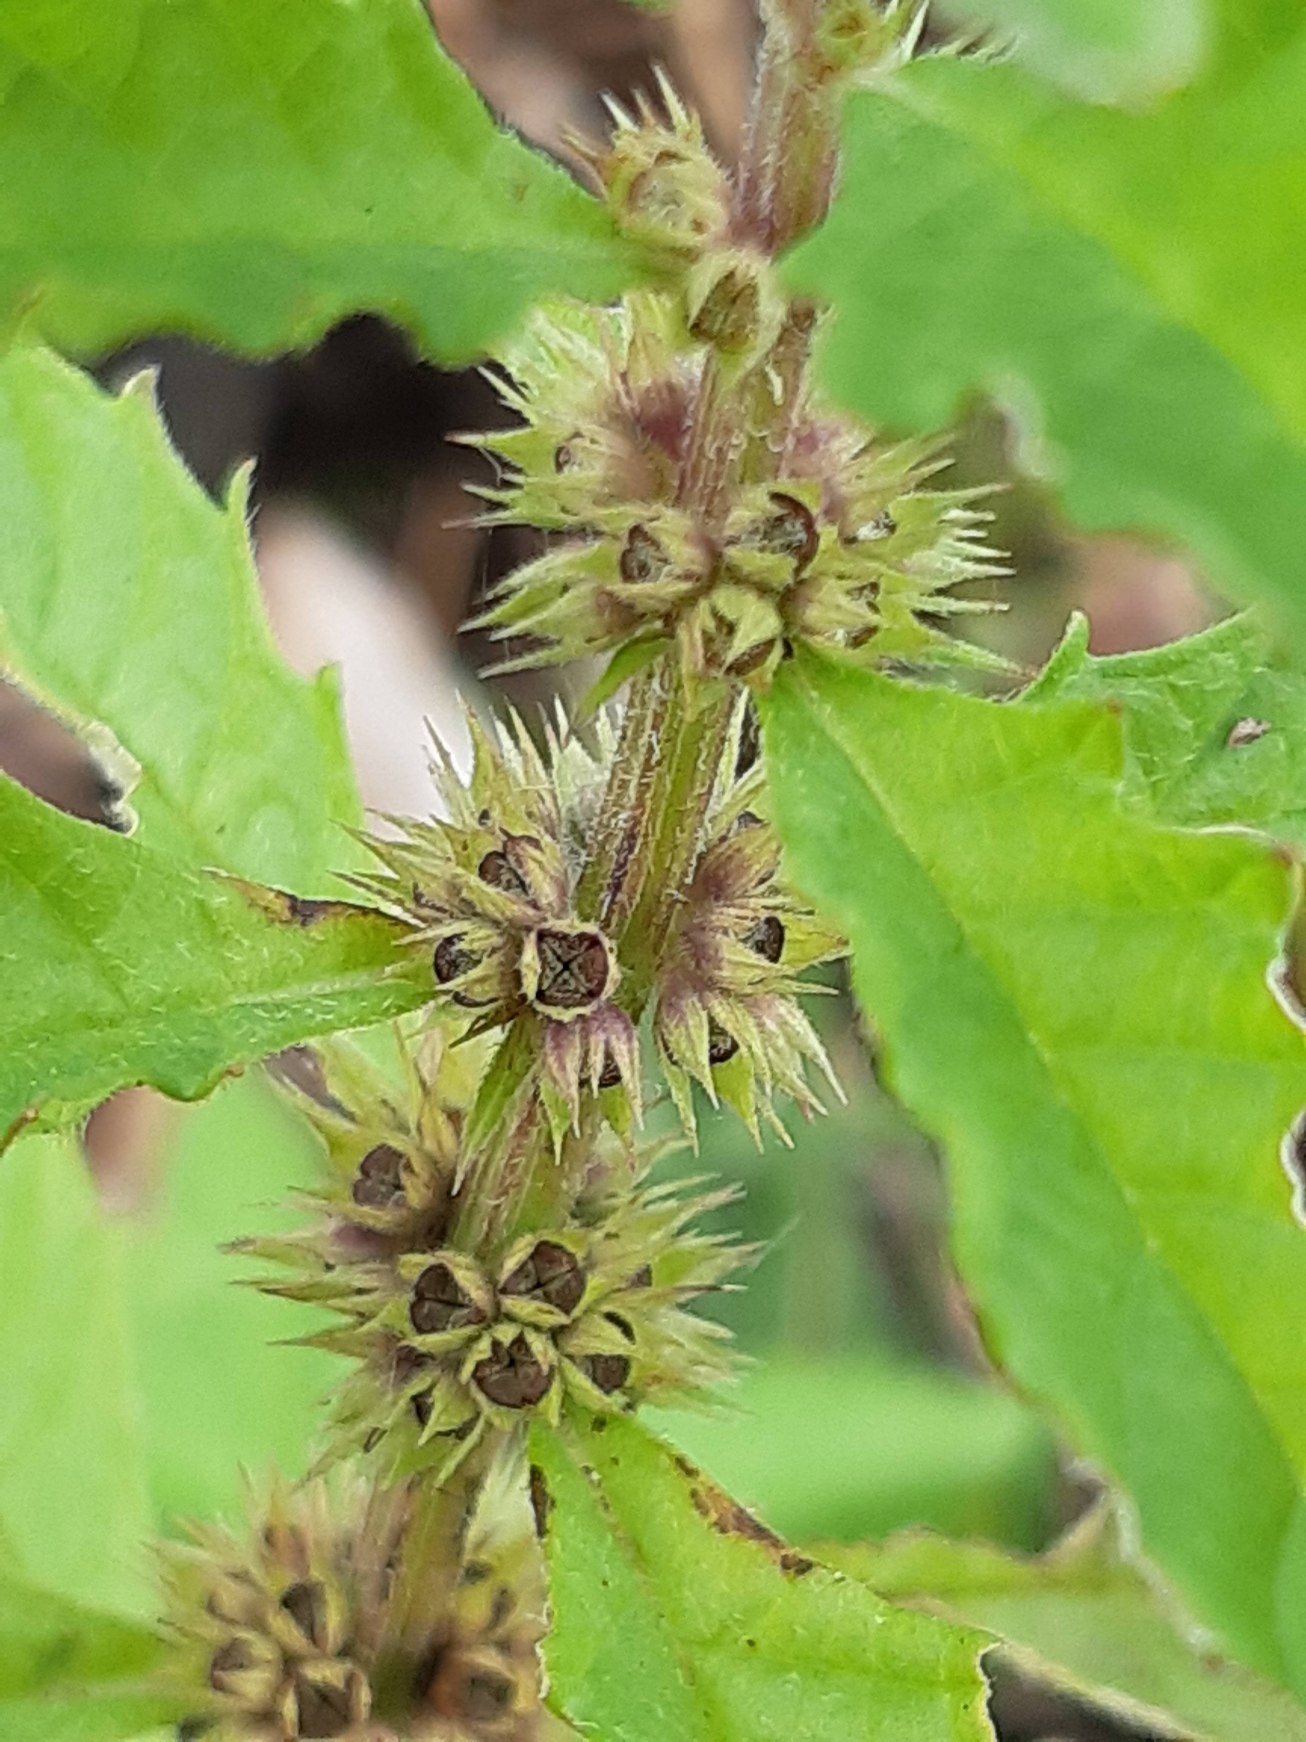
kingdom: Plantae
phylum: Tracheophyta
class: Magnoliopsida
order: Lamiales
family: Lamiaceae
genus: Lycopus
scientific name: Lycopus europaeus
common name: Sværtevæld
